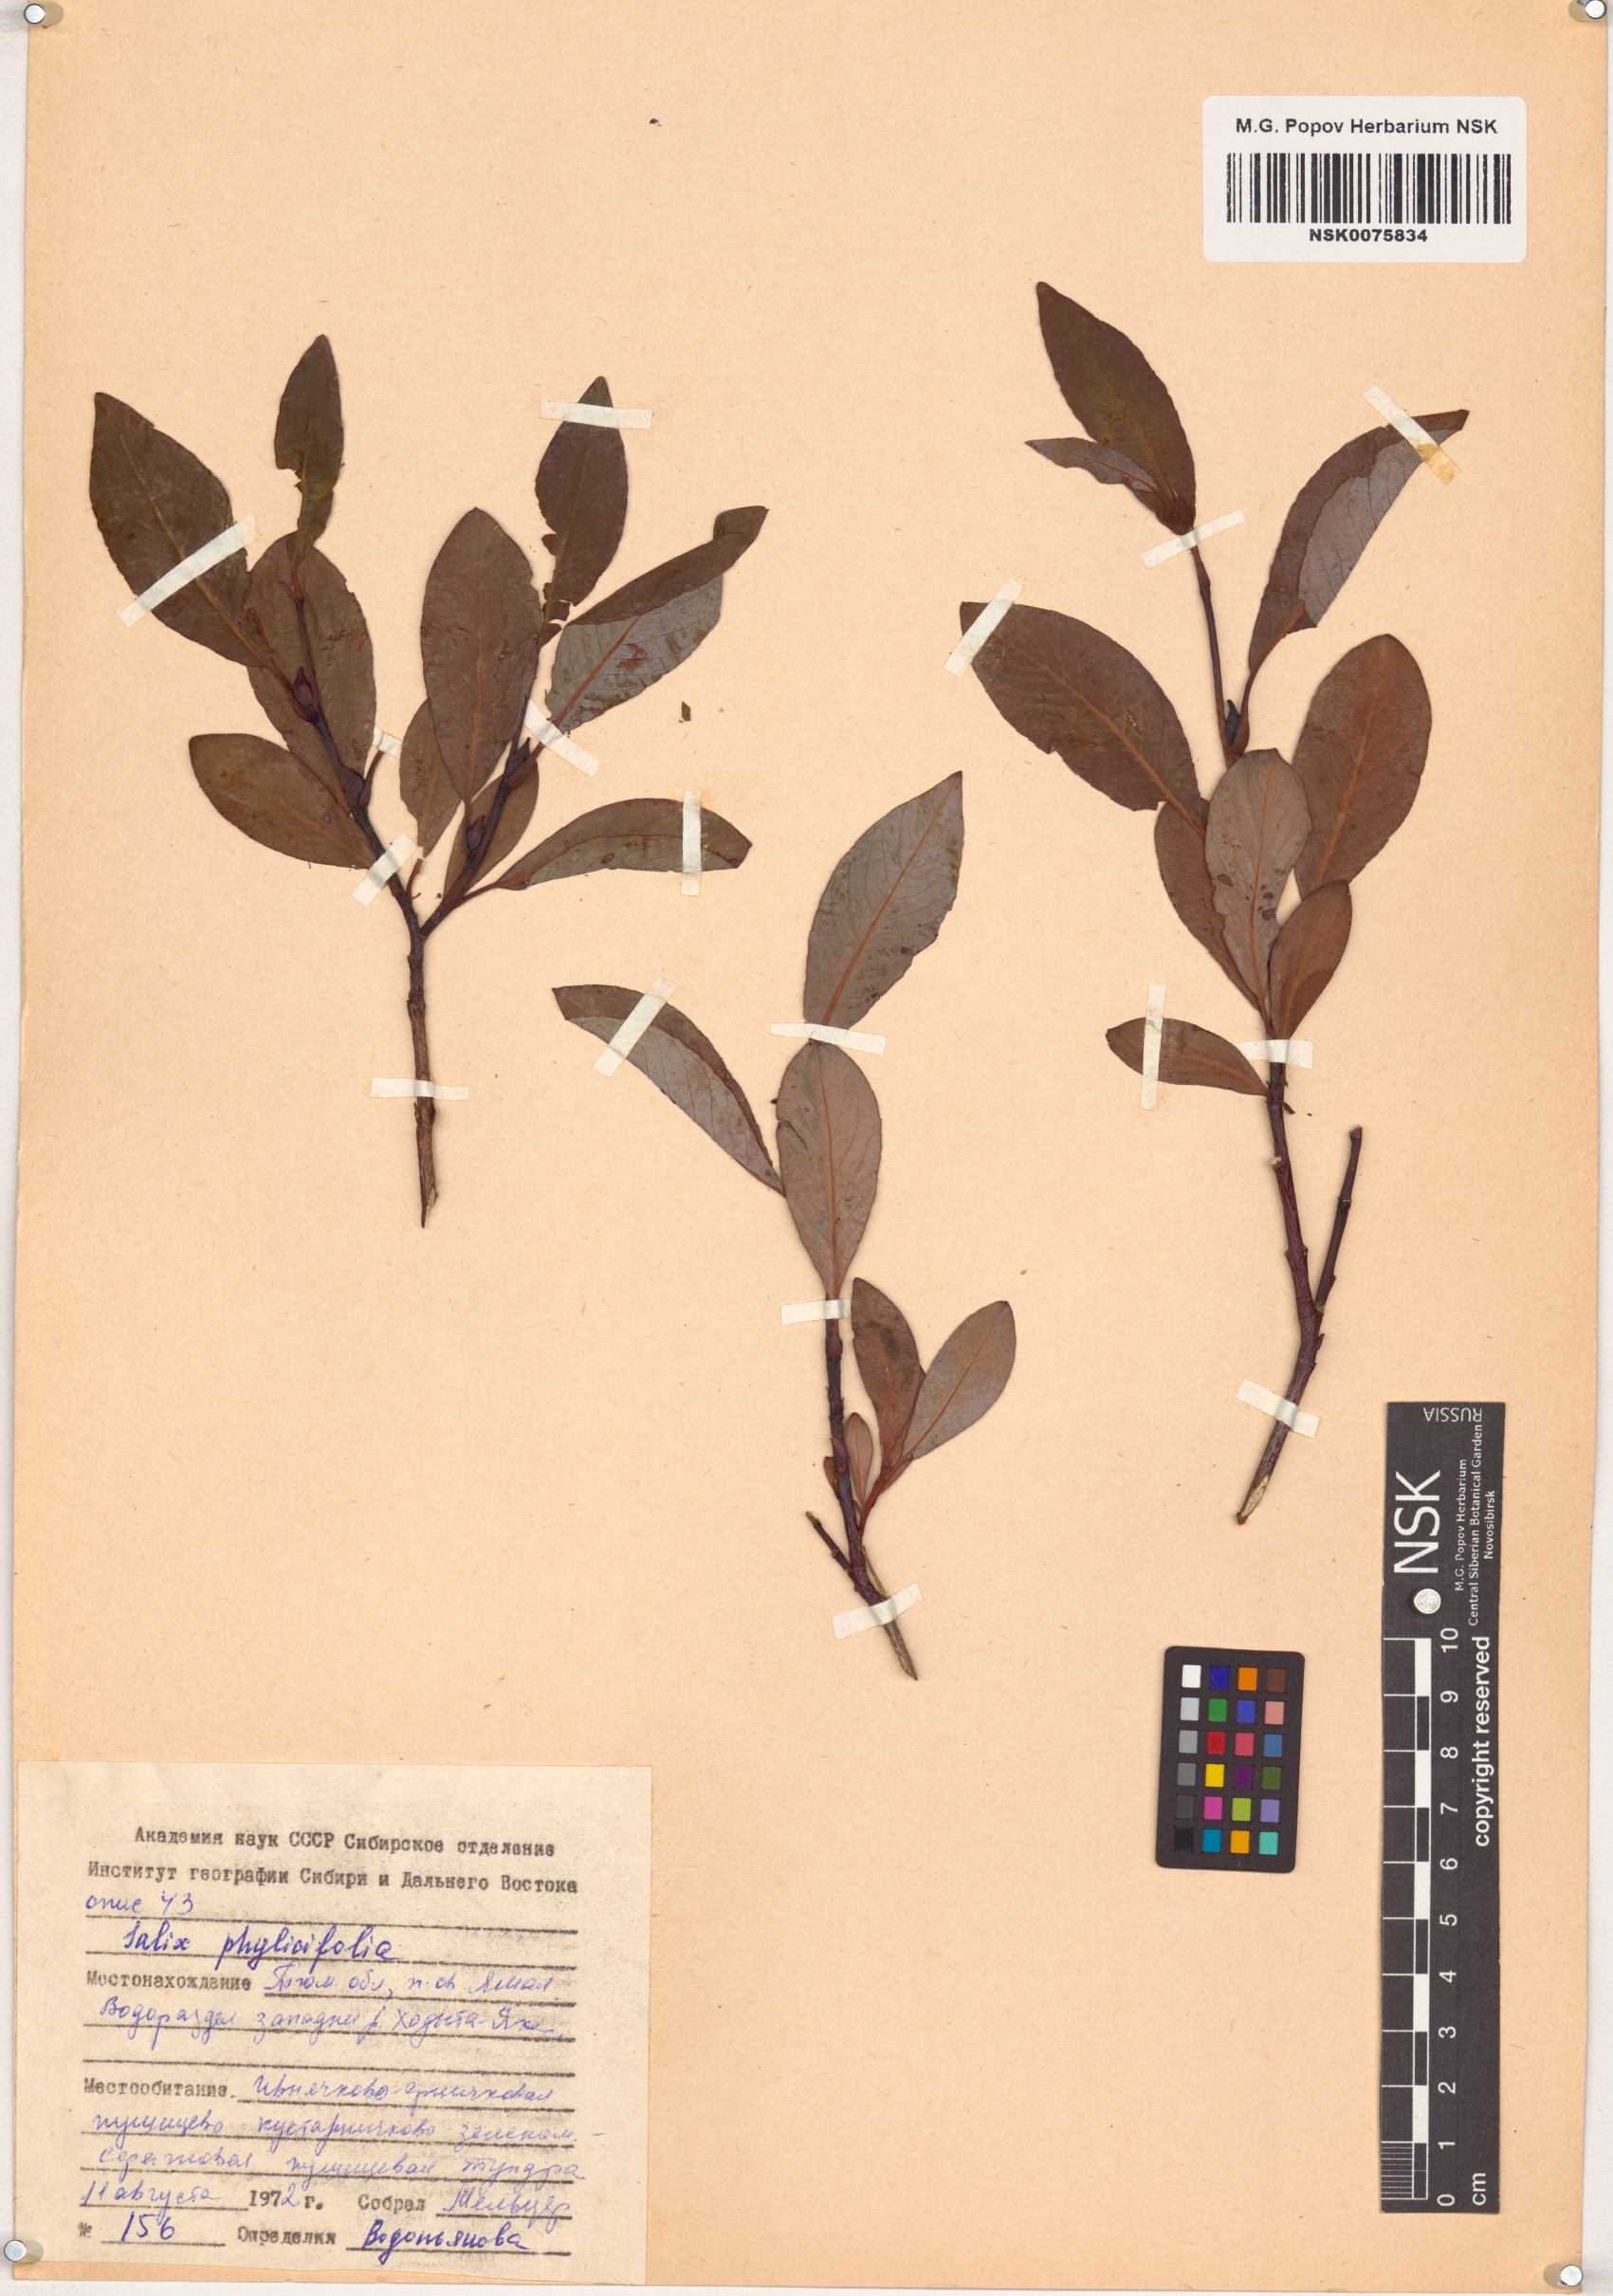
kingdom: Plantae
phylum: Tracheophyta
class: Magnoliopsida
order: Malpighiales
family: Salicaceae
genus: Salix
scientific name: Salix phylicifolia
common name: Tea-leaved willow
